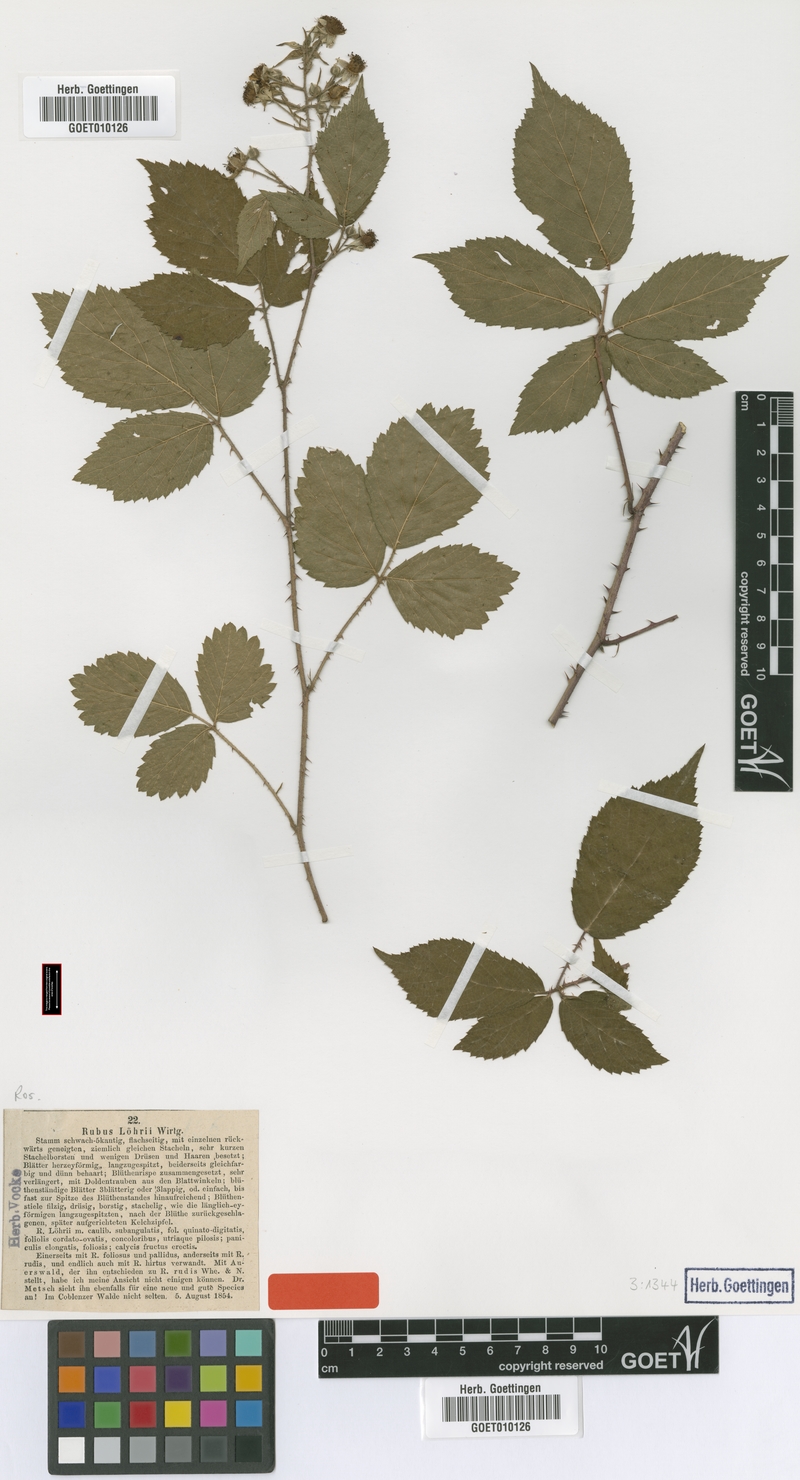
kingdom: Plantae
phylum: Tracheophyta
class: Magnoliopsida
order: Rosales
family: Rosaceae
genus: Rubus
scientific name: Rubus loehrii
